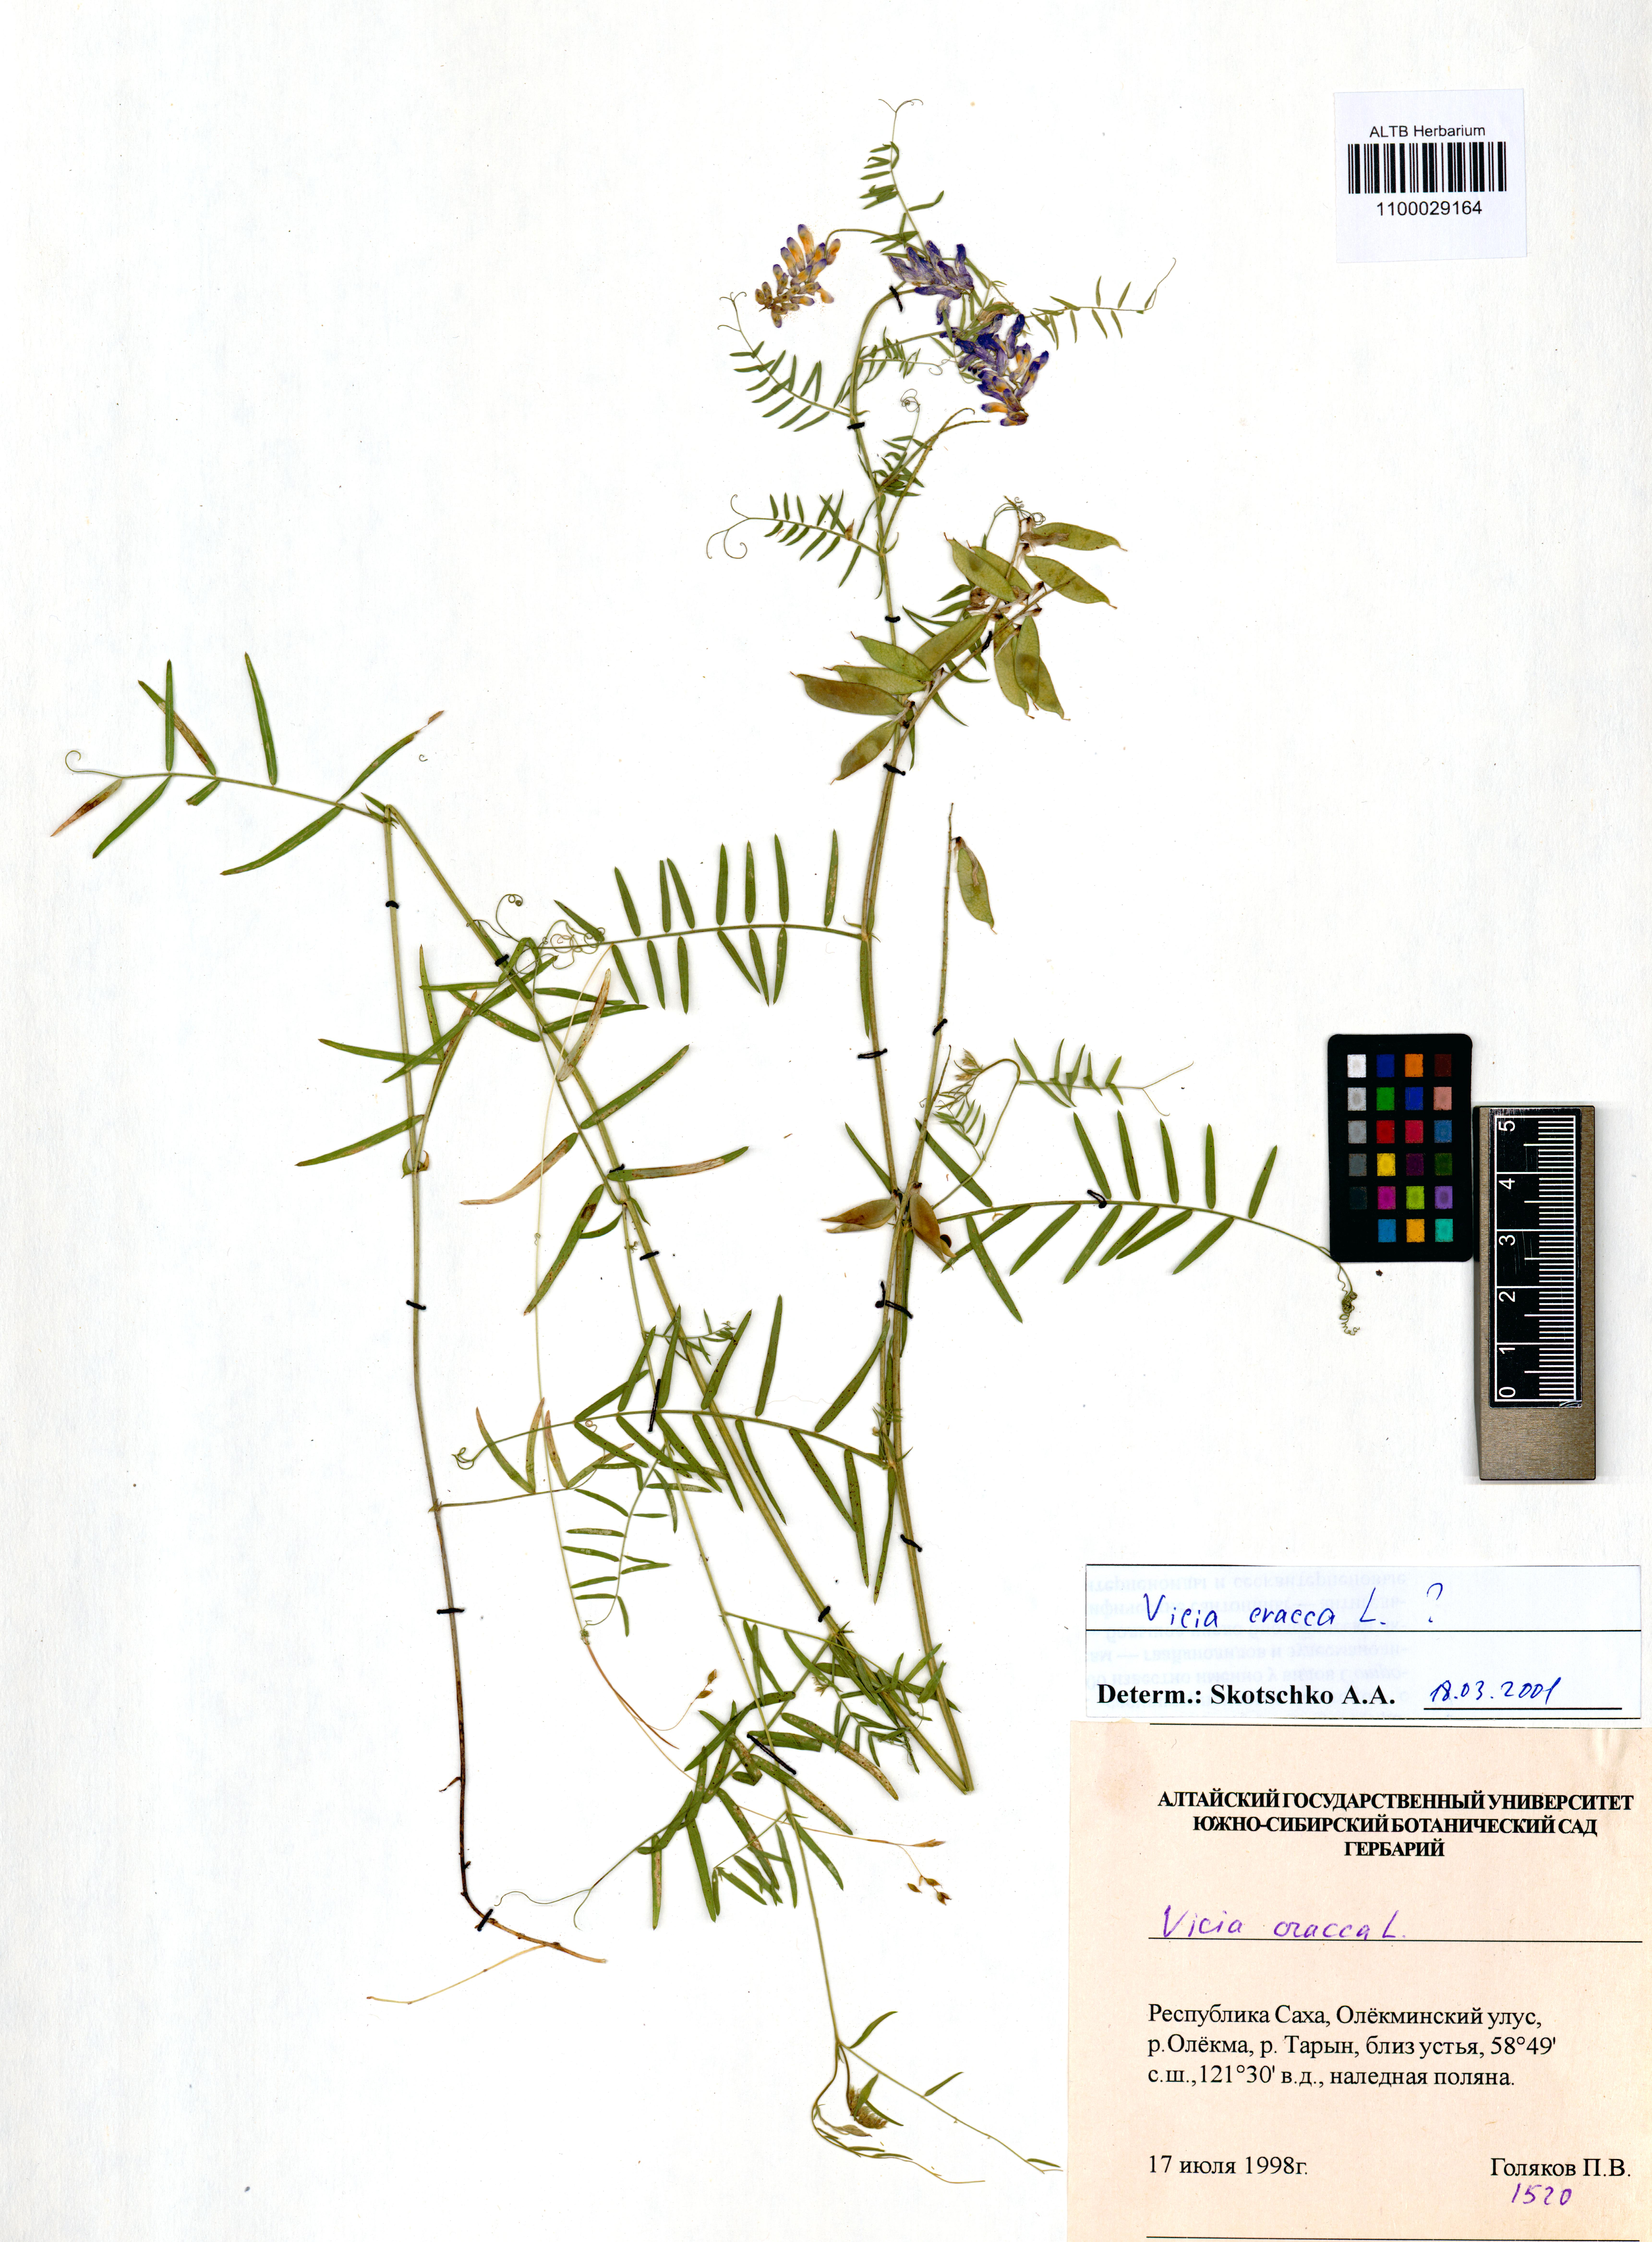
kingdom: Plantae
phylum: Tracheophyta
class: Magnoliopsida
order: Fabales
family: Fabaceae
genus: Vicia
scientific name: Vicia cracca
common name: Bird vetch
